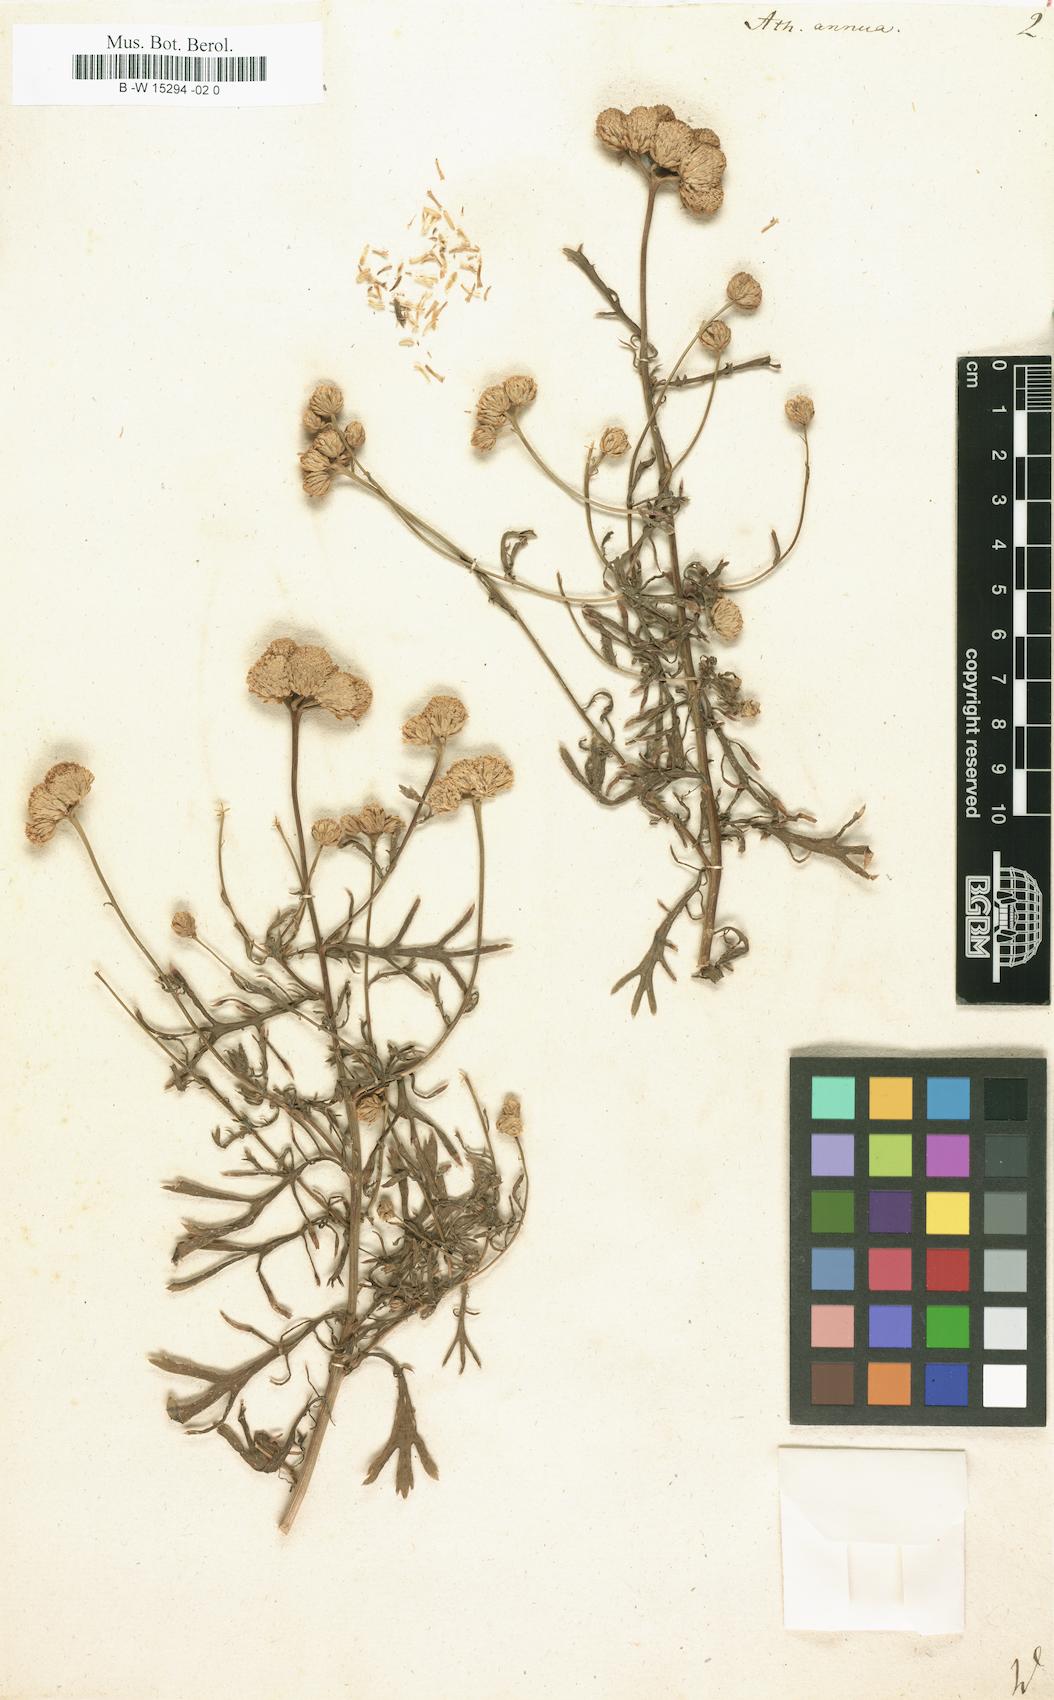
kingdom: Plantae
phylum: Tracheophyta
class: Magnoliopsida
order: Asterales
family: Asteraceae
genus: Lonas
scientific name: Lonas annua
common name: African daisy
